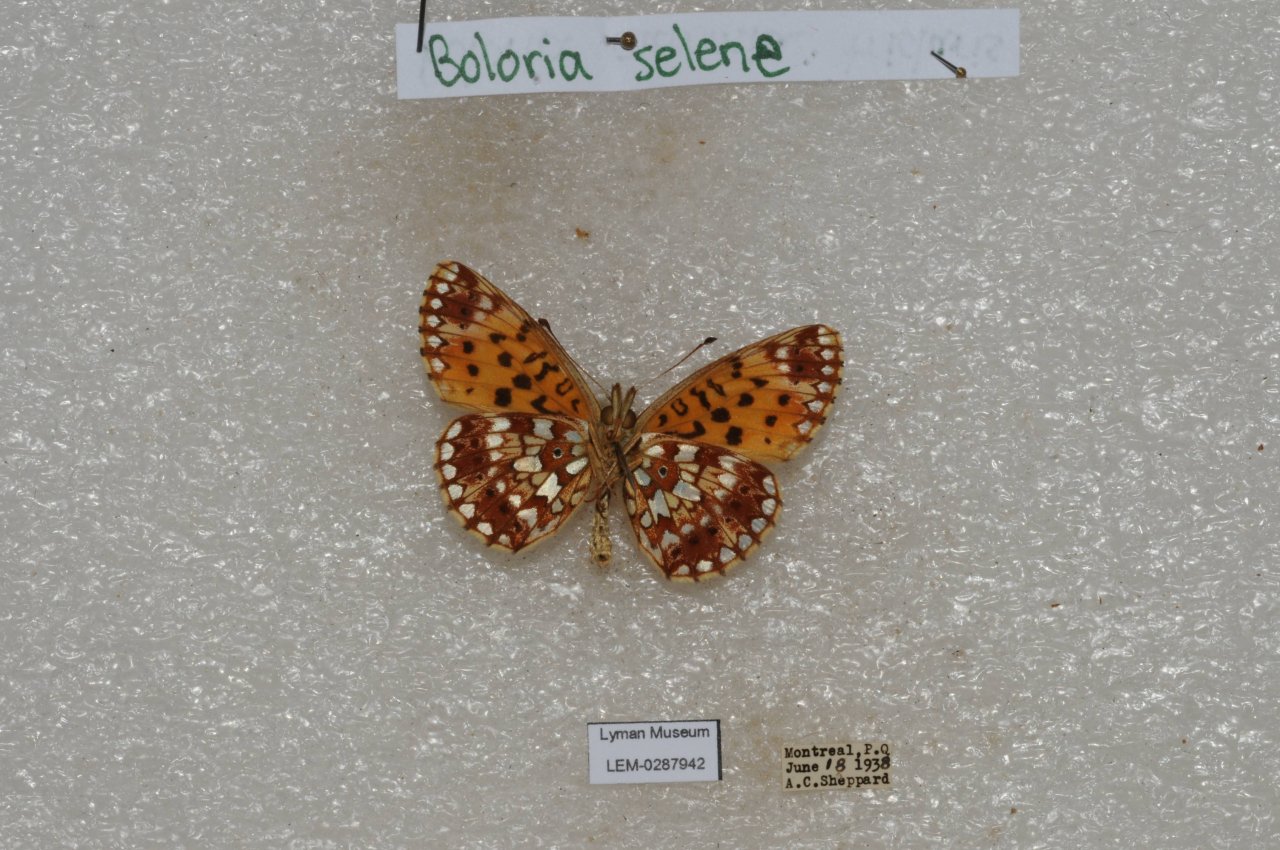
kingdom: Animalia
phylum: Arthropoda
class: Insecta
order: Lepidoptera
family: Nymphalidae
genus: Boloria
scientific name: Boloria selene
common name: Silver-bordered Fritillary
